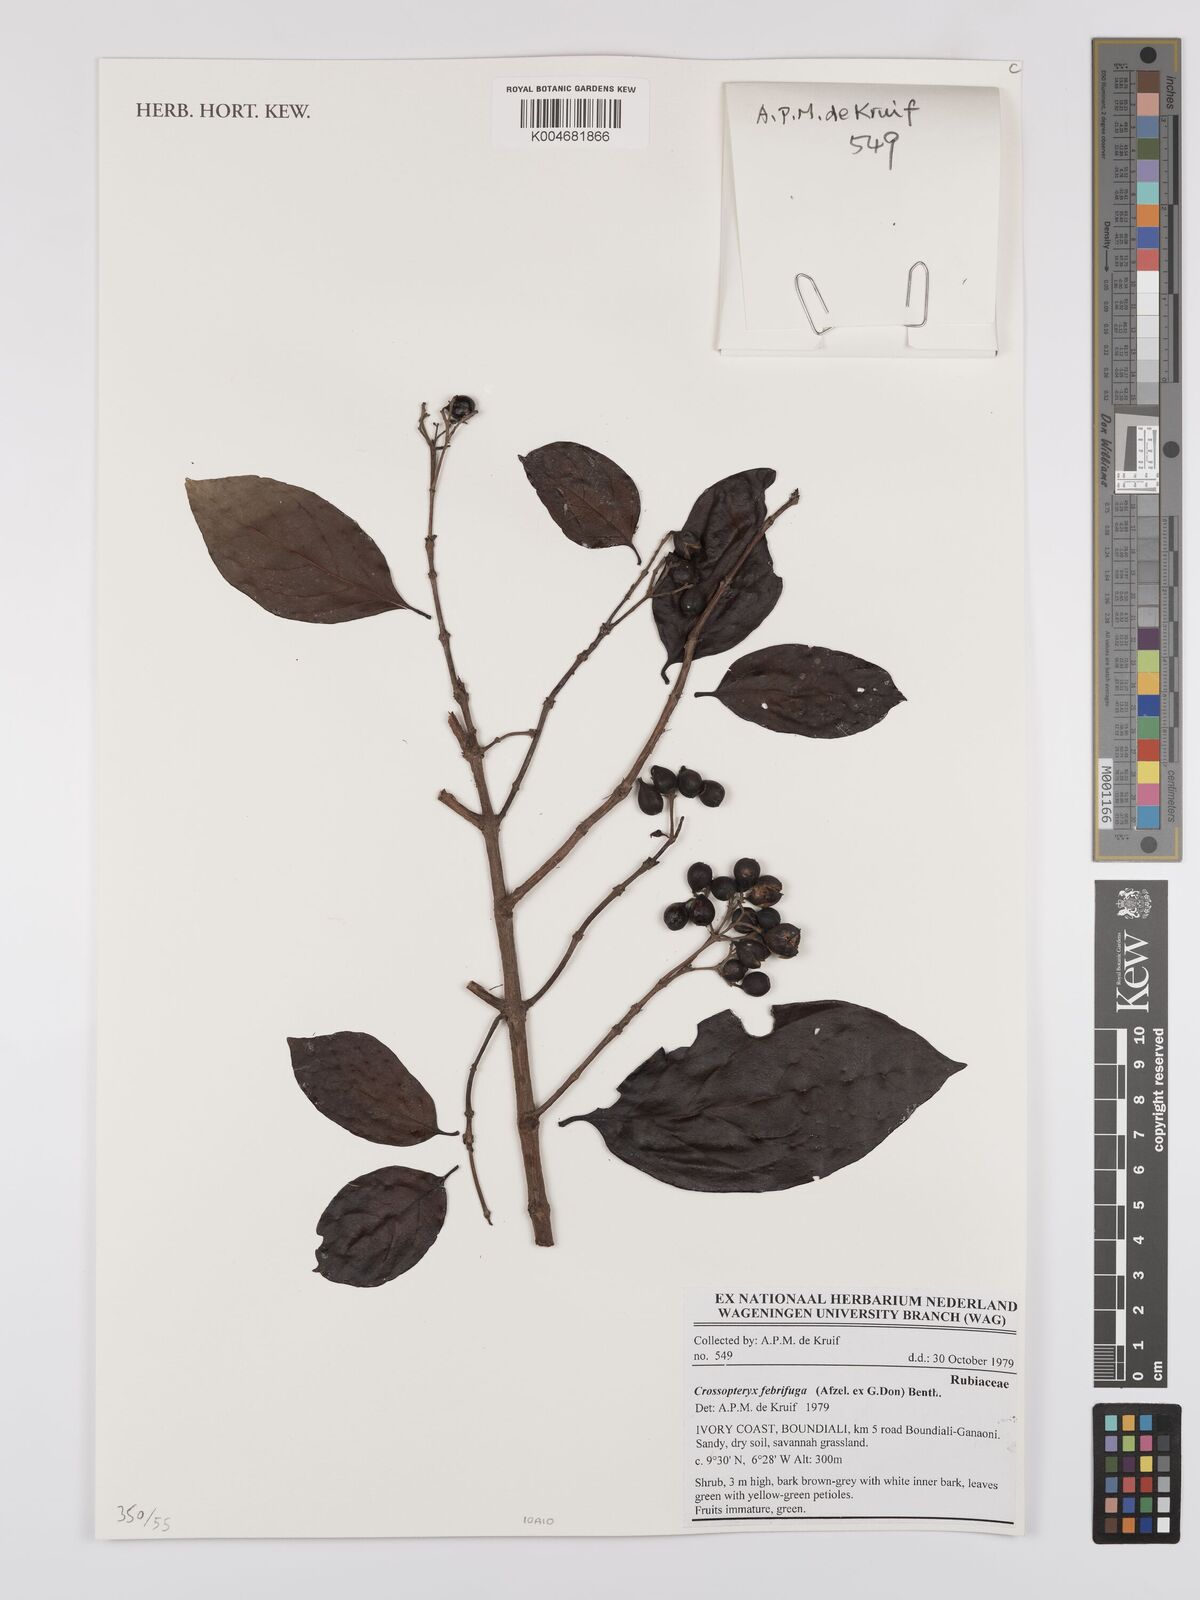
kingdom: Plantae
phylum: Tracheophyta
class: Magnoliopsida
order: Gentianales
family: Rubiaceae
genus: Crossopteryx
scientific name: Crossopteryx febrifuga
